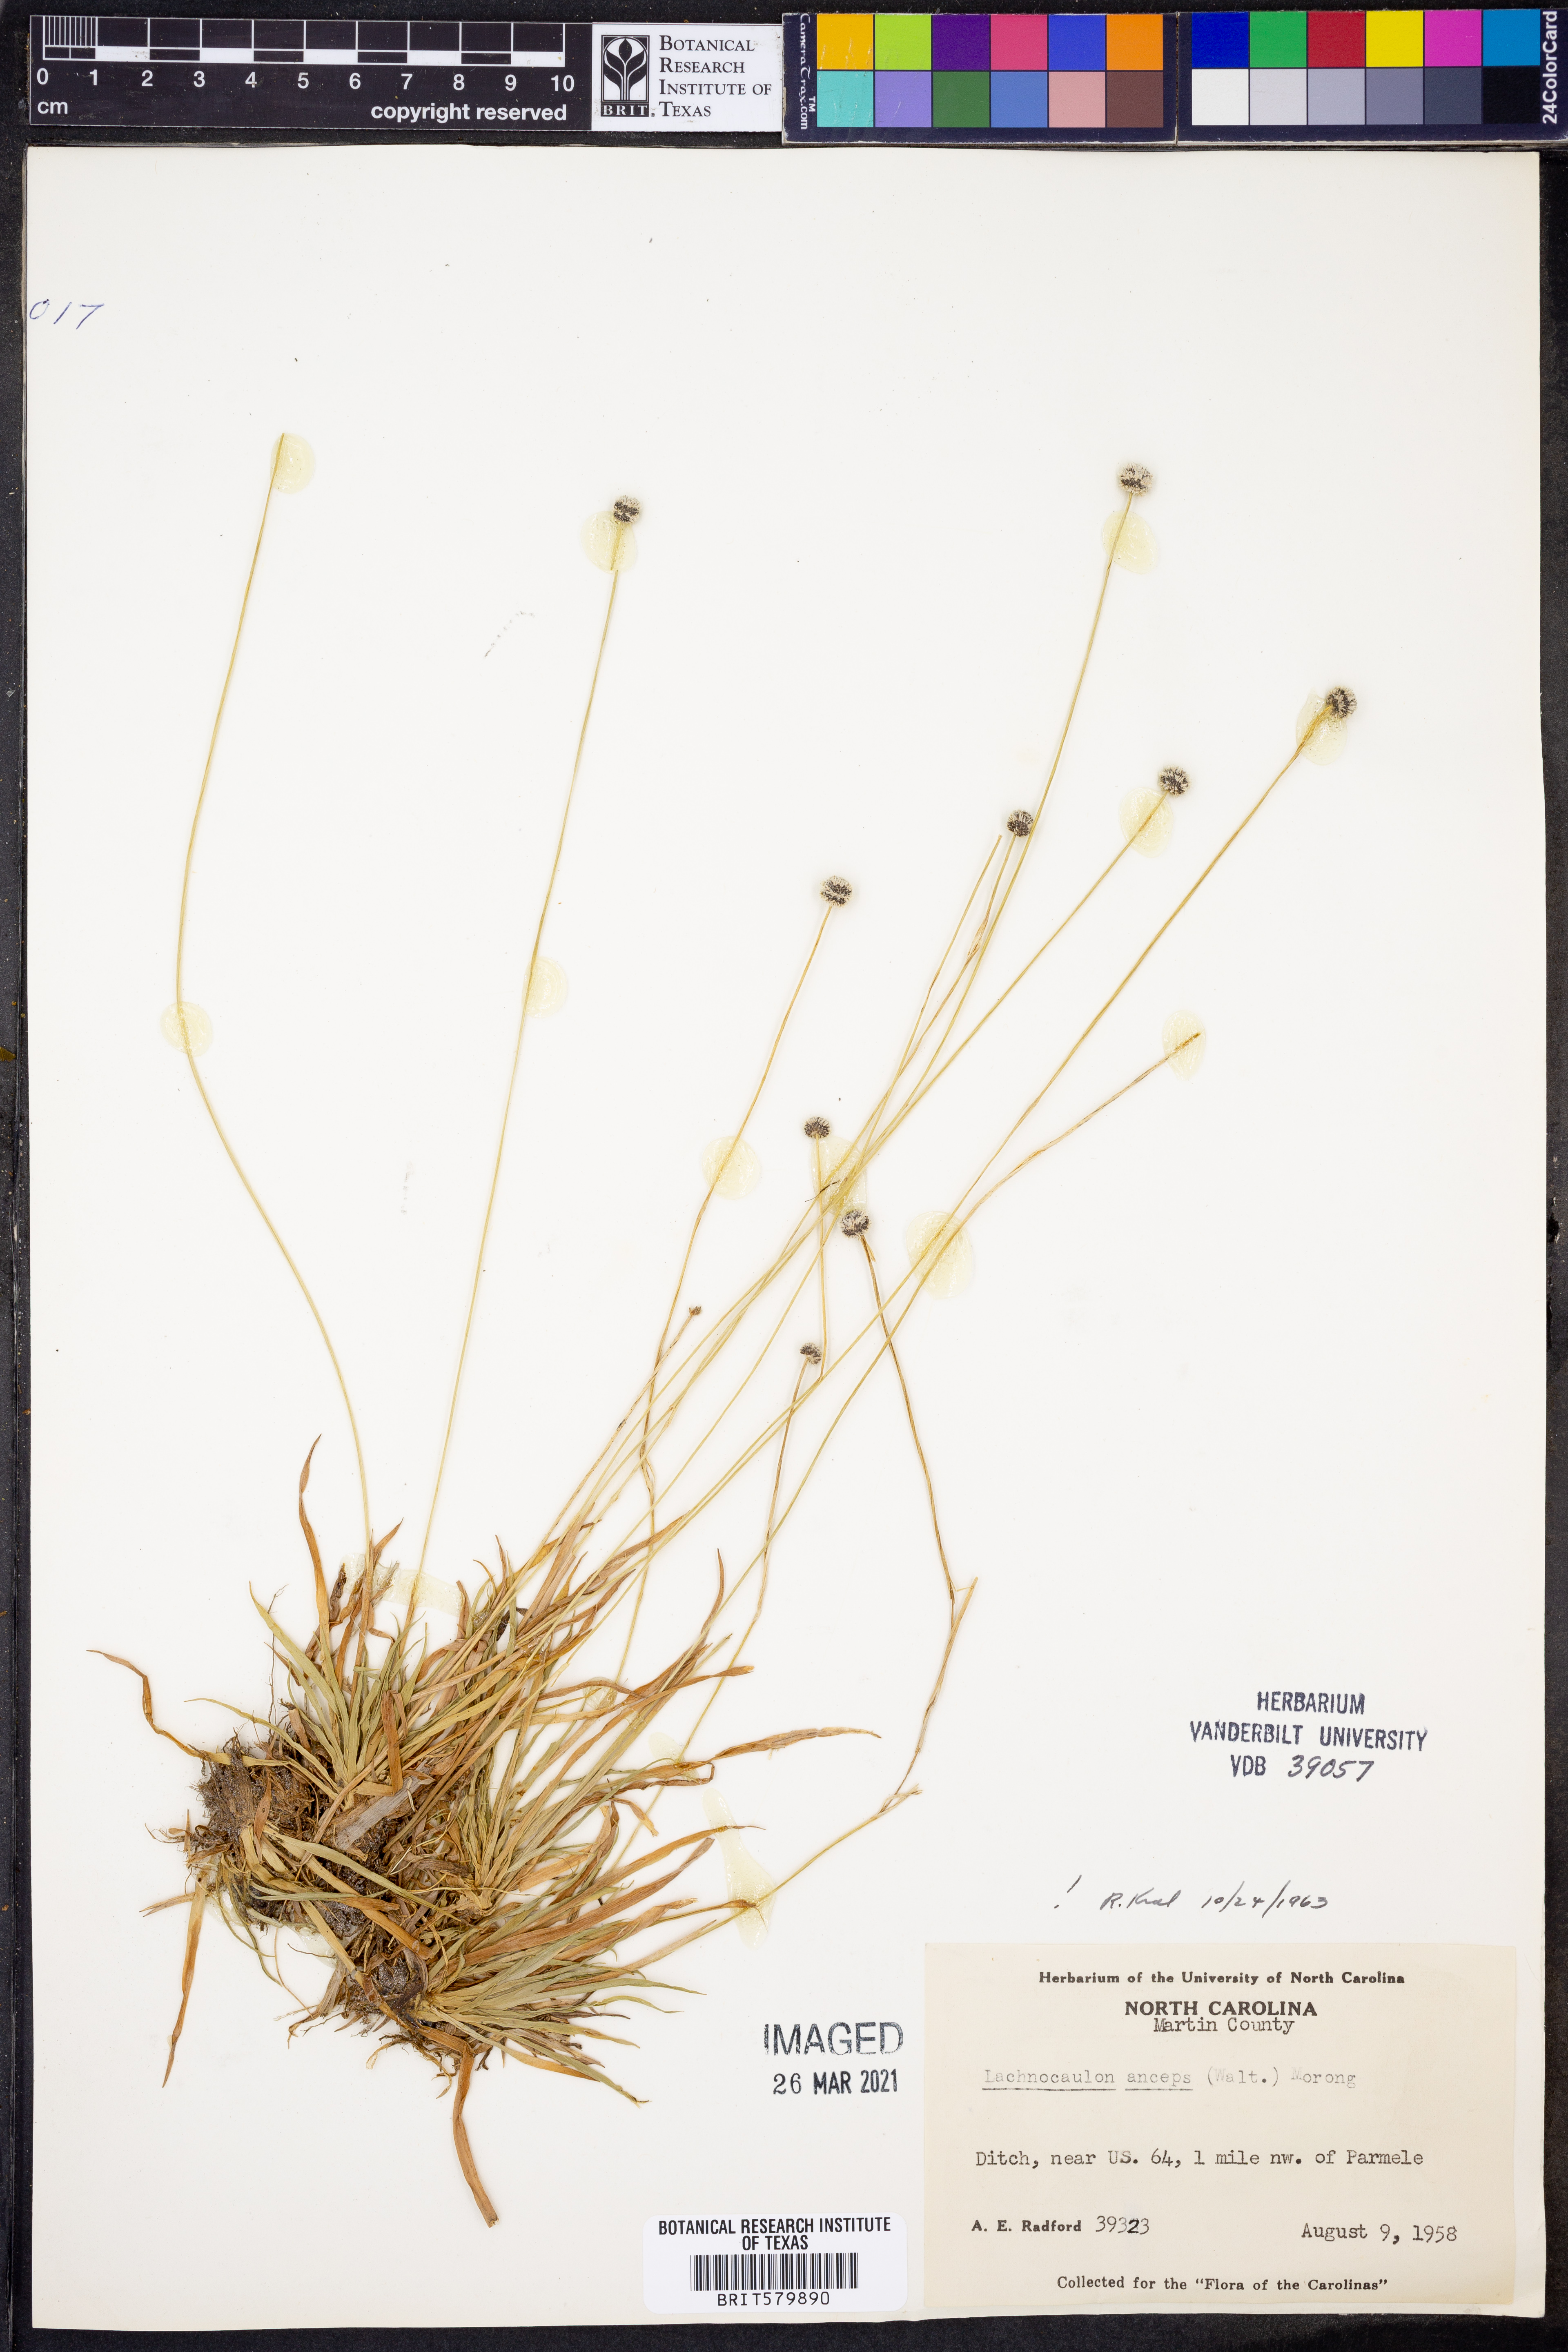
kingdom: Plantae
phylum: Tracheophyta
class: Liliopsida
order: Poales
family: Eriocaulaceae
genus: Paepalanthus
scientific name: Paepalanthus anceps
